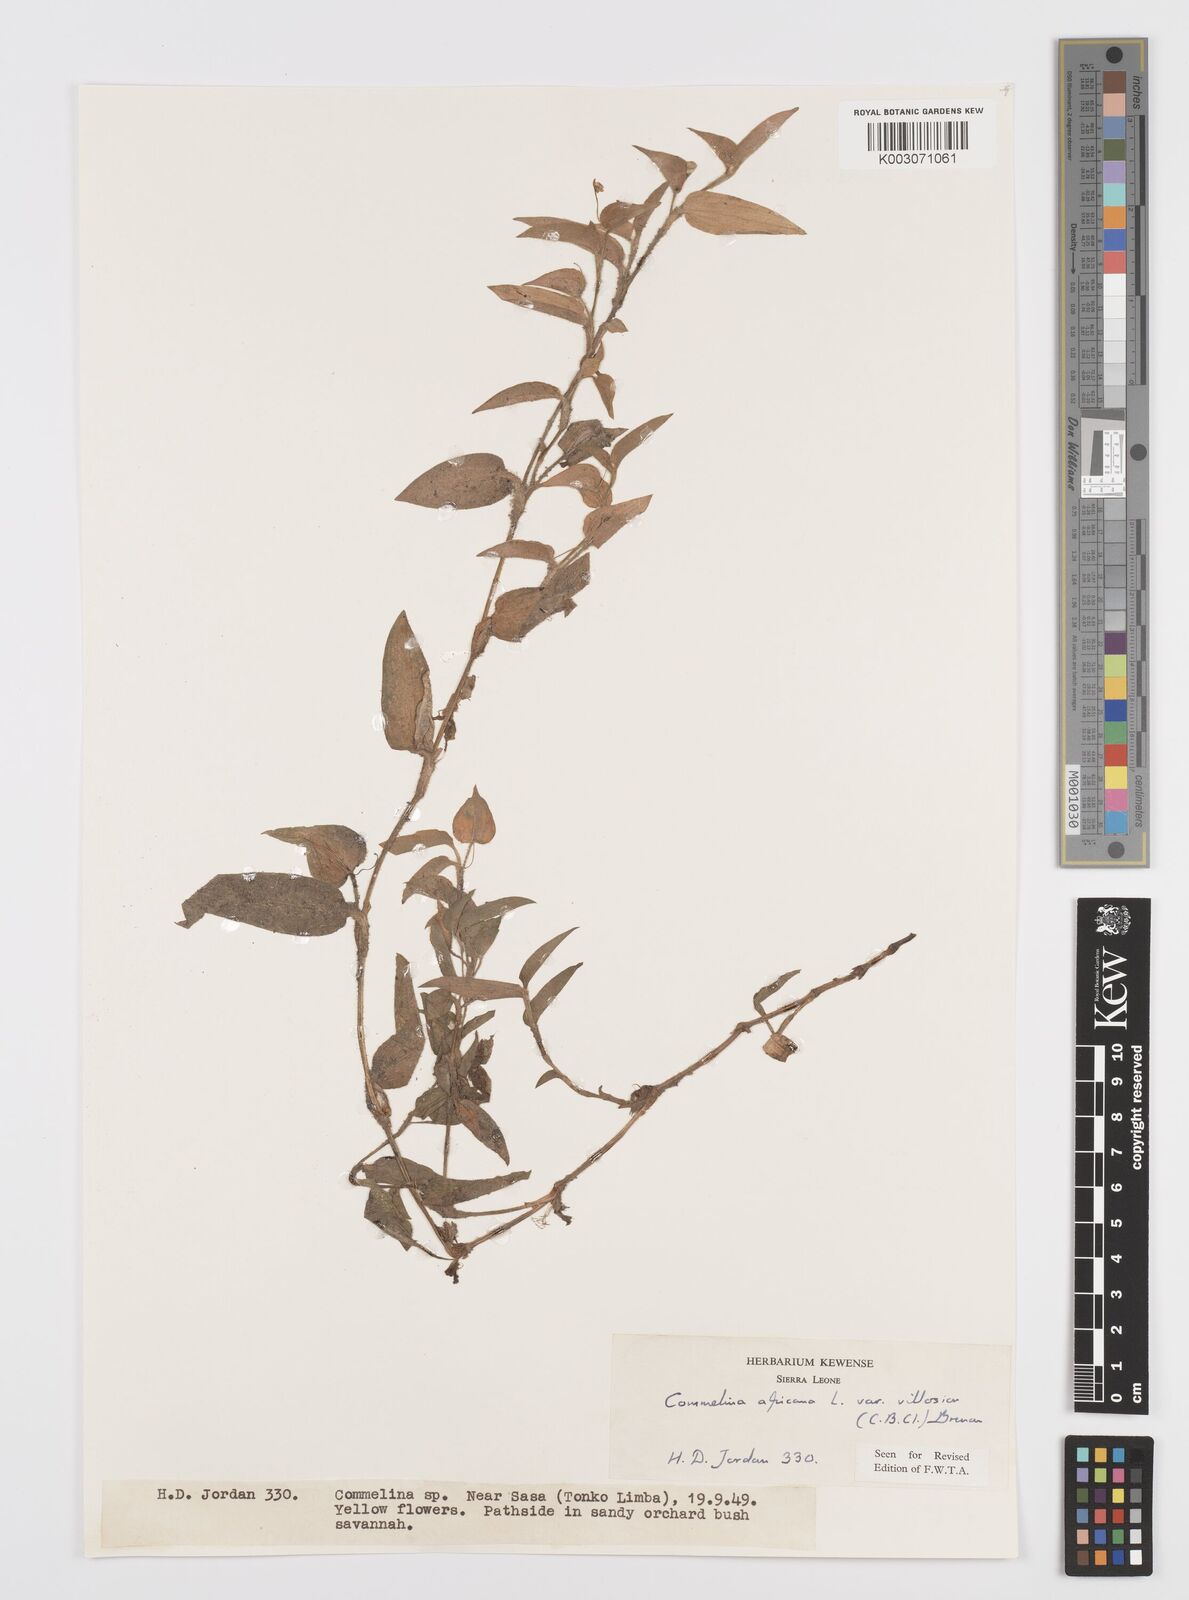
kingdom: Plantae
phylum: Tracheophyta
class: Liliopsida
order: Commelinales
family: Commelinaceae
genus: Commelina
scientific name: Commelina africana
